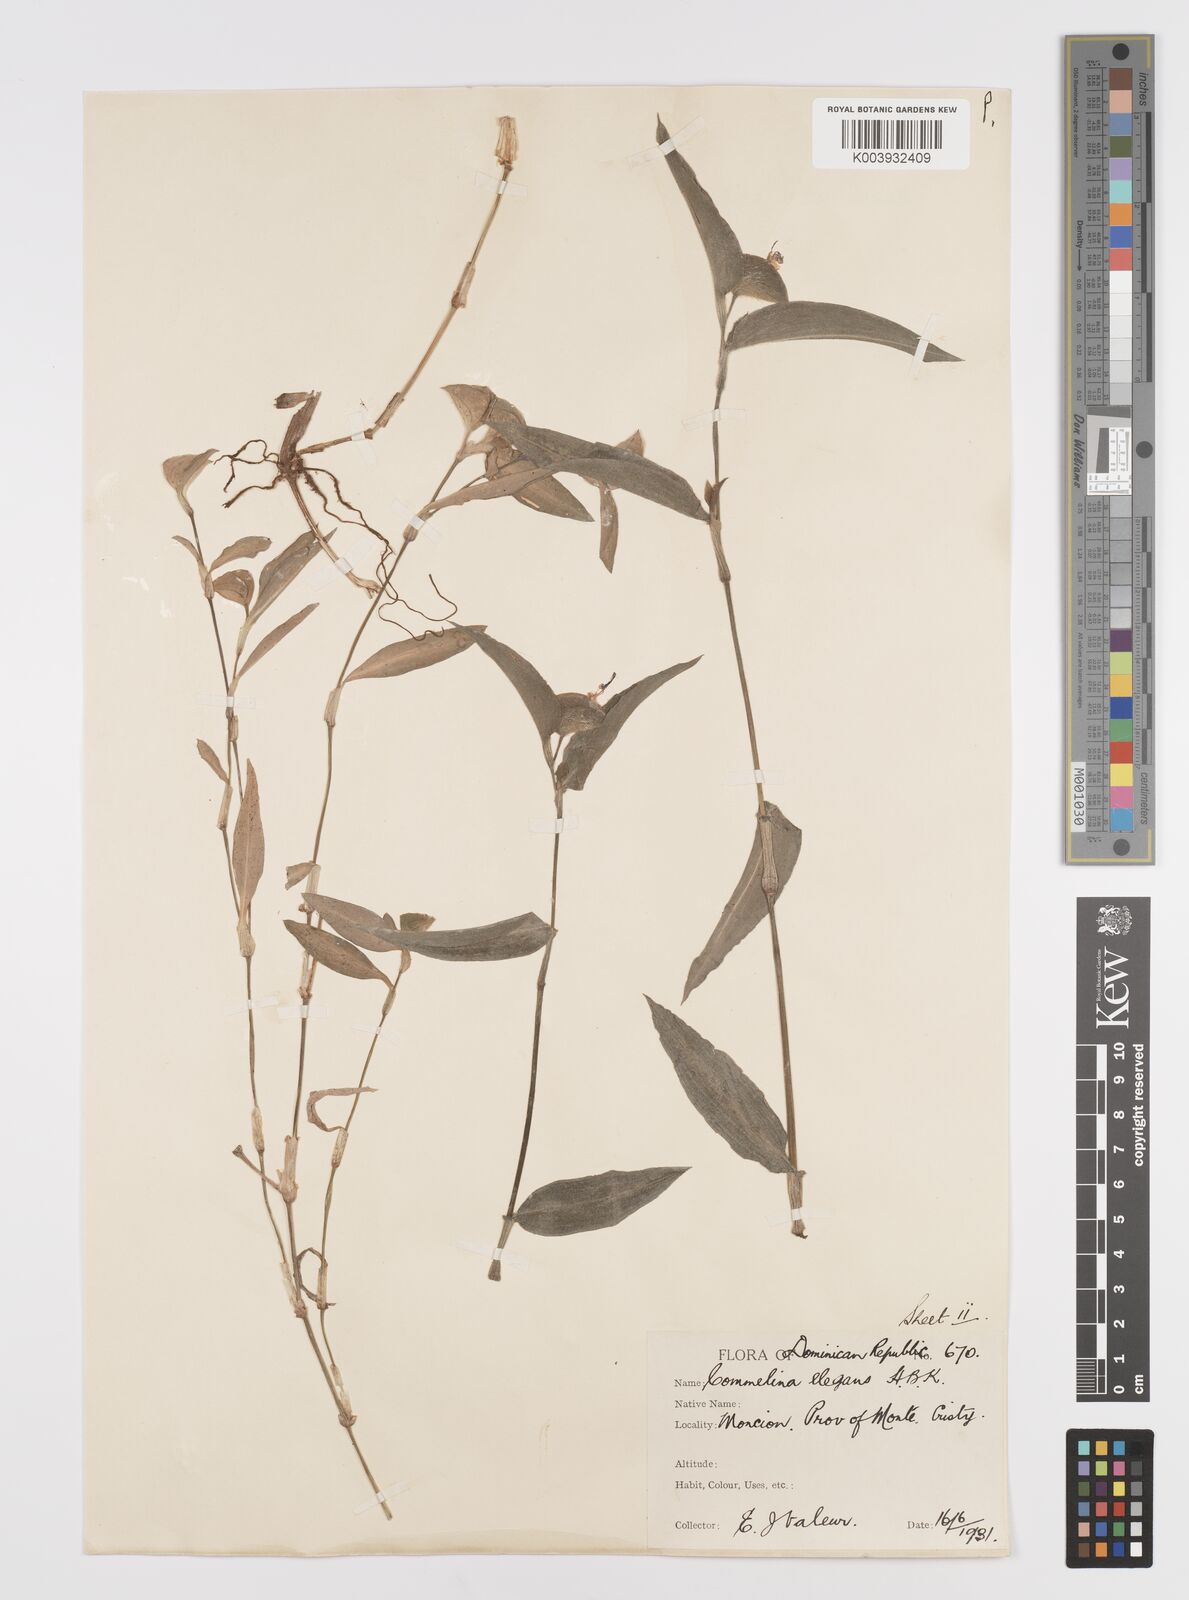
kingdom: Plantae
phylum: Tracheophyta
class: Liliopsida
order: Commelinales
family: Commelinaceae
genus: Commelina
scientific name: Commelina erecta
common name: Blousel blommetjie
